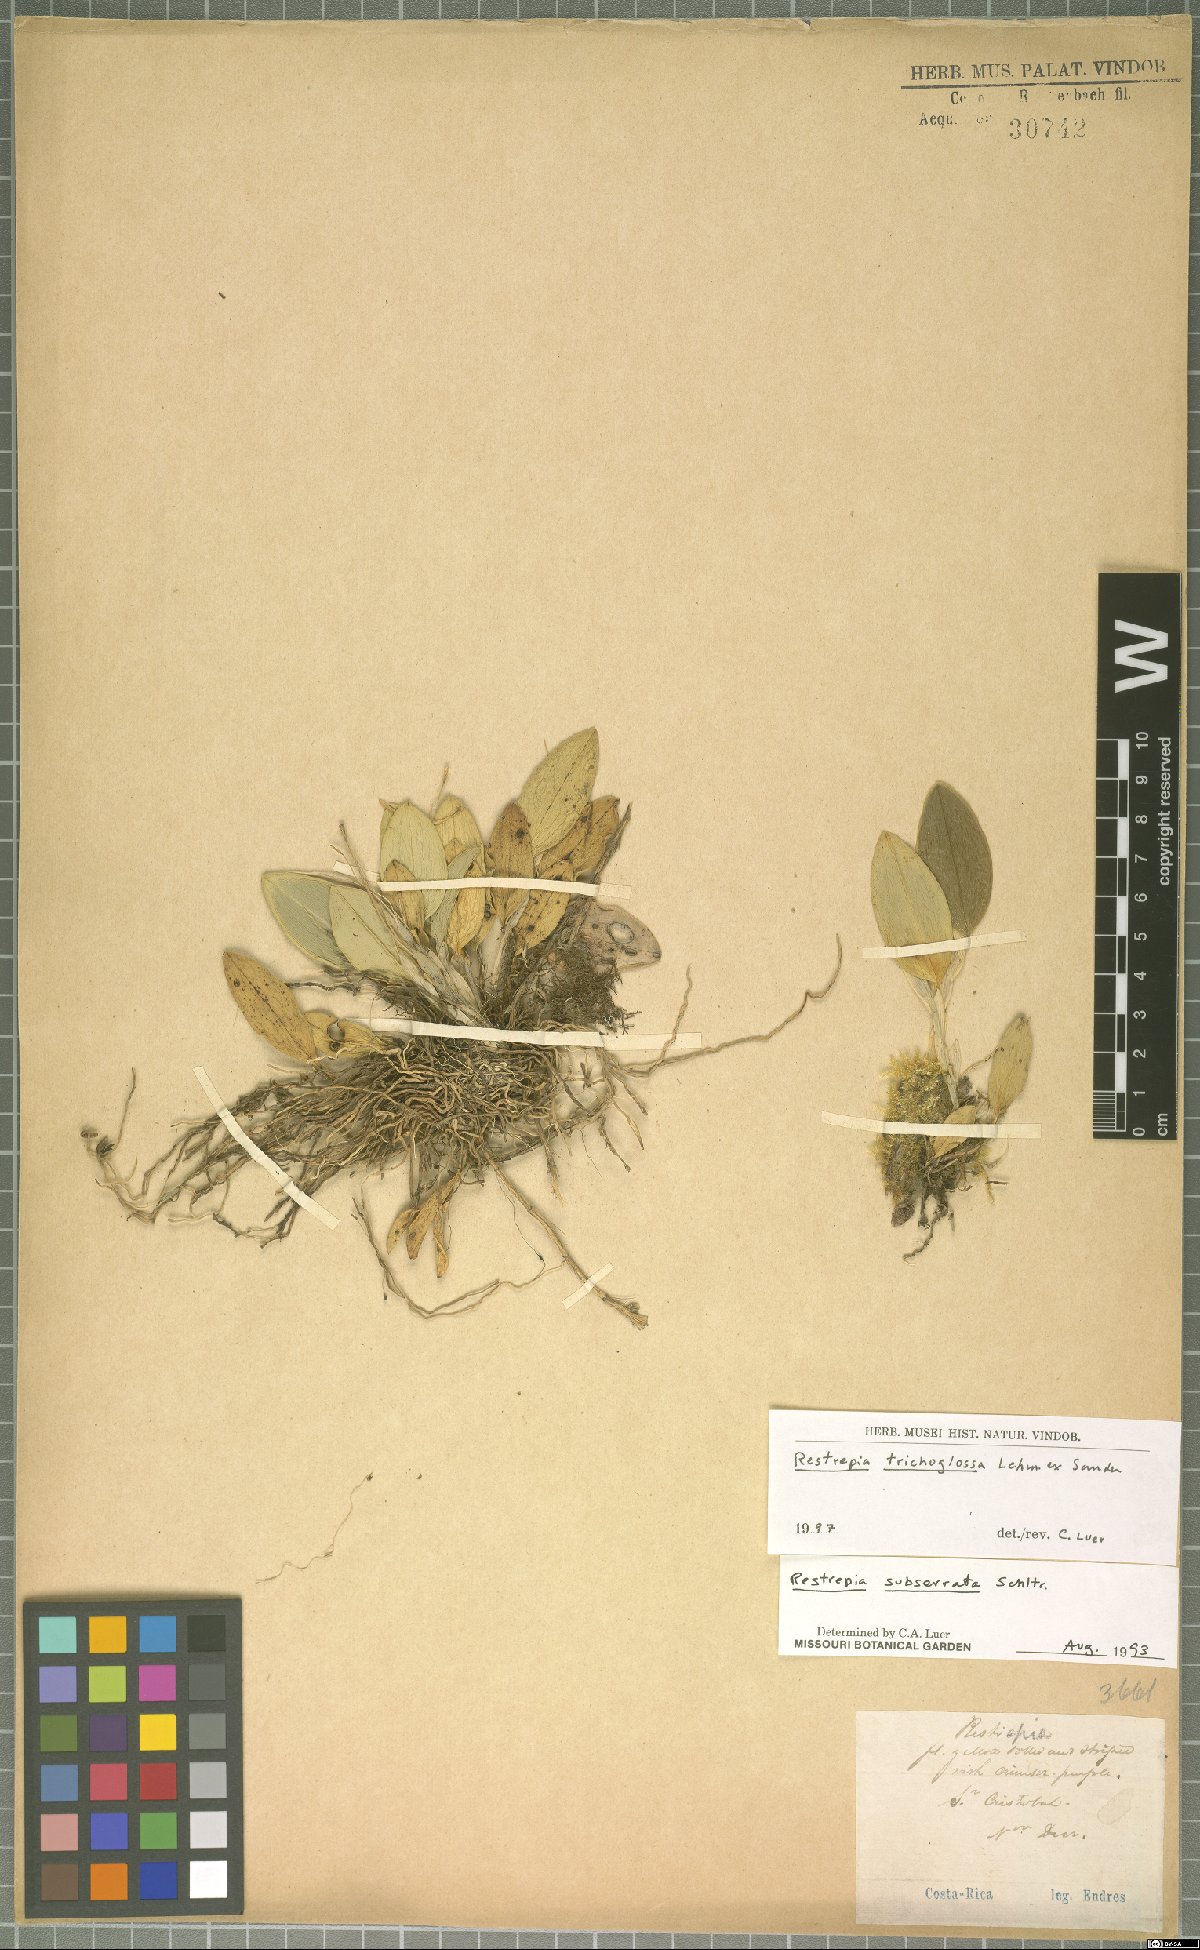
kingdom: Plantae
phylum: Tracheophyta
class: Liliopsida
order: Asparagales
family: Orchidaceae
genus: Restrepia
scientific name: Restrepia trichoglossa
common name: Hairy tongued restrepia
